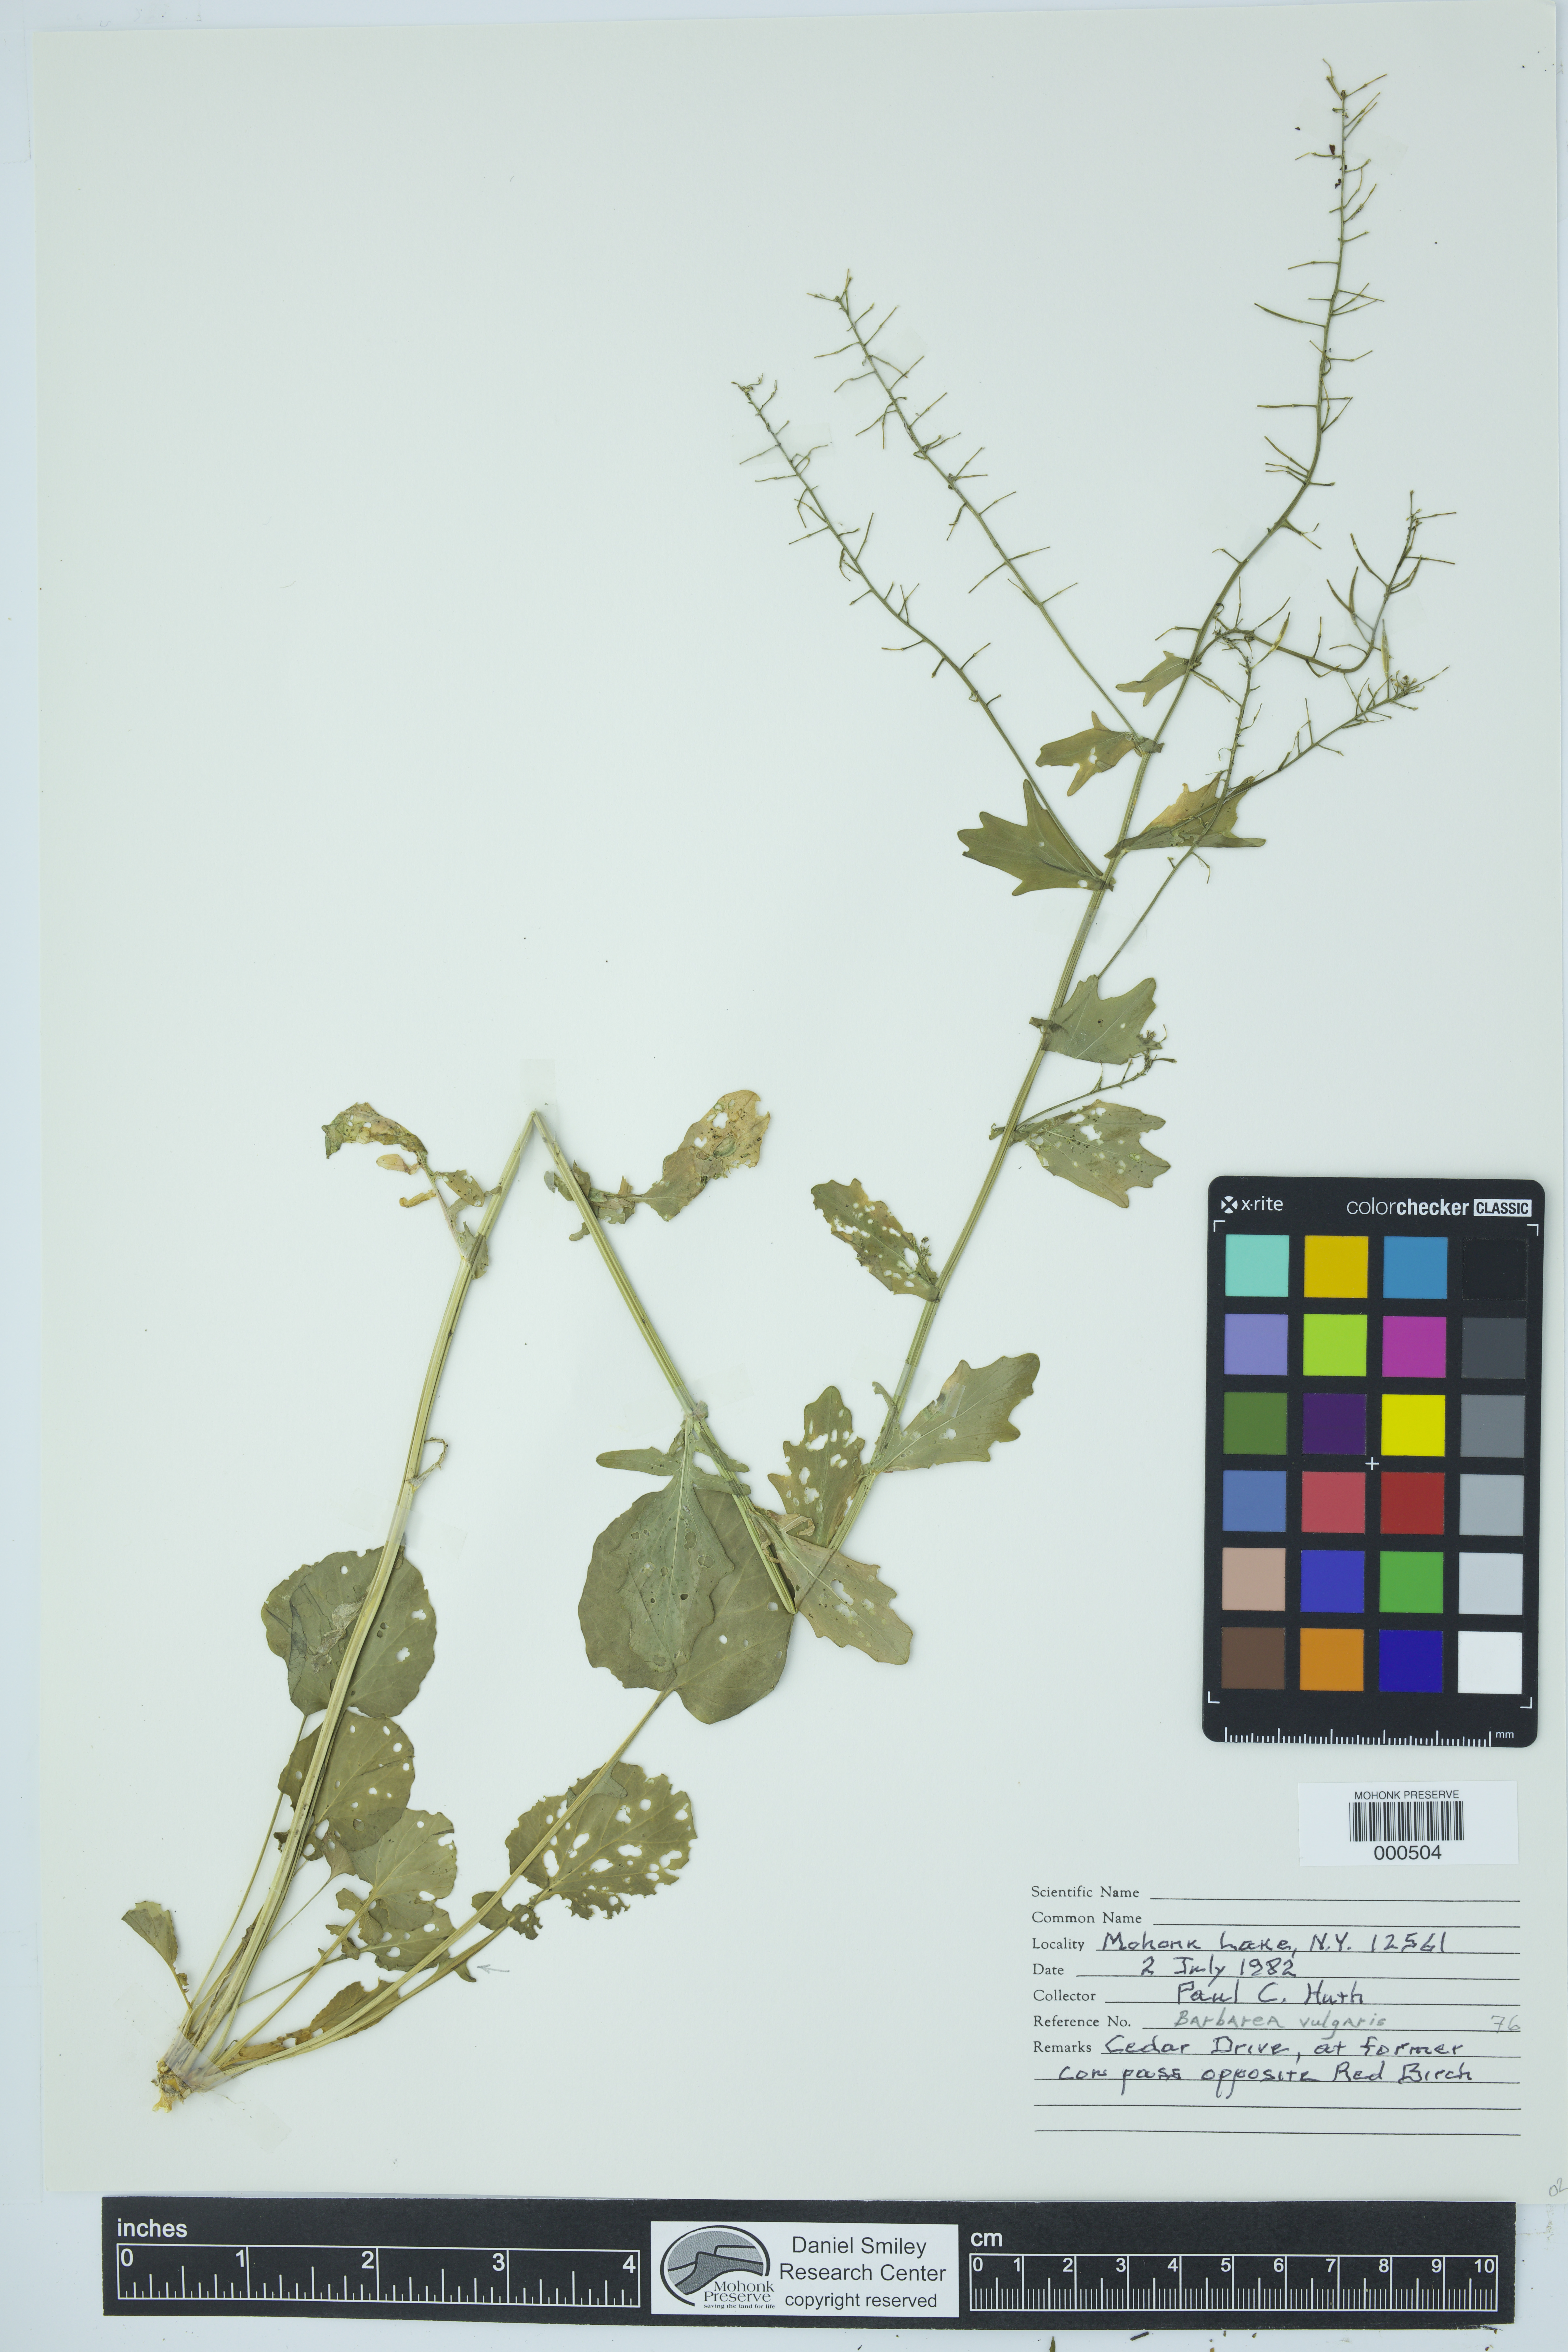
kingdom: Plantae
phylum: Tracheophyta
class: Magnoliopsida
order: Brassicales
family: Brassicaceae
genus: Barbarea
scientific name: Barbarea vulgaris
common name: Cressy-greens
